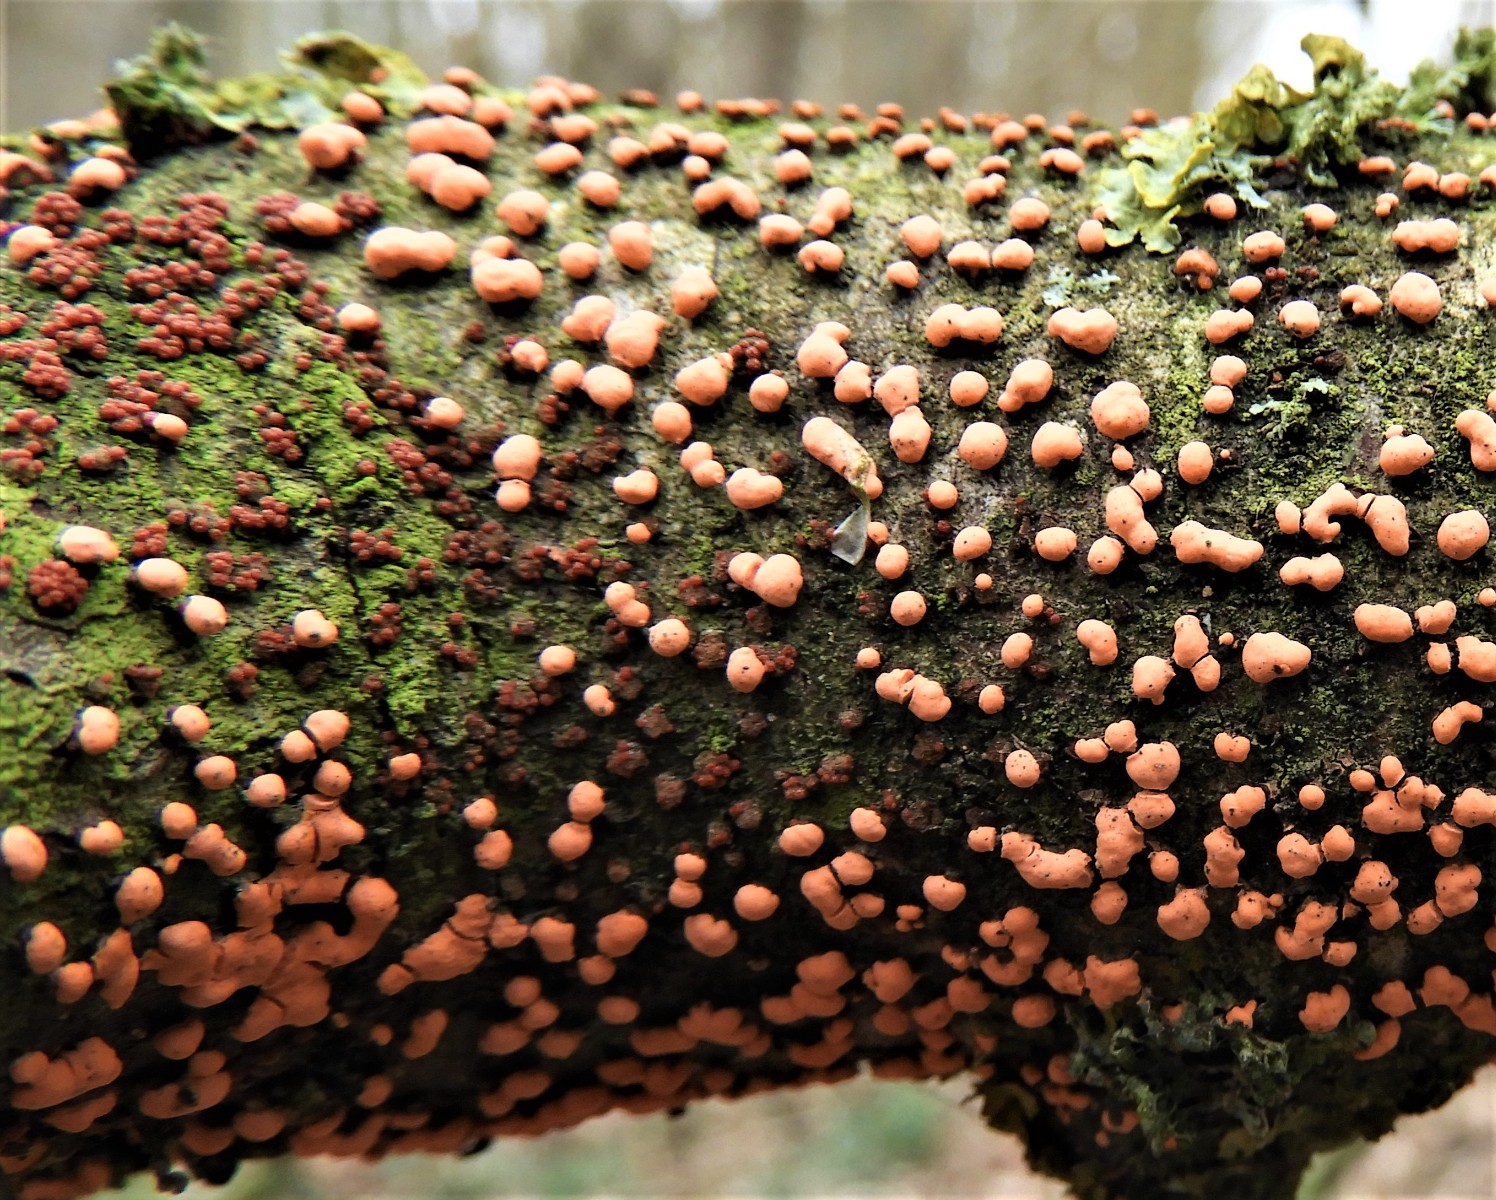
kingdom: Fungi
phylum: Ascomycota
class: Sordariomycetes
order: Hypocreales
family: Nectriaceae
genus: Nectria
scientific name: Nectria cinnabarina
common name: almindelig cinnobersvamp
